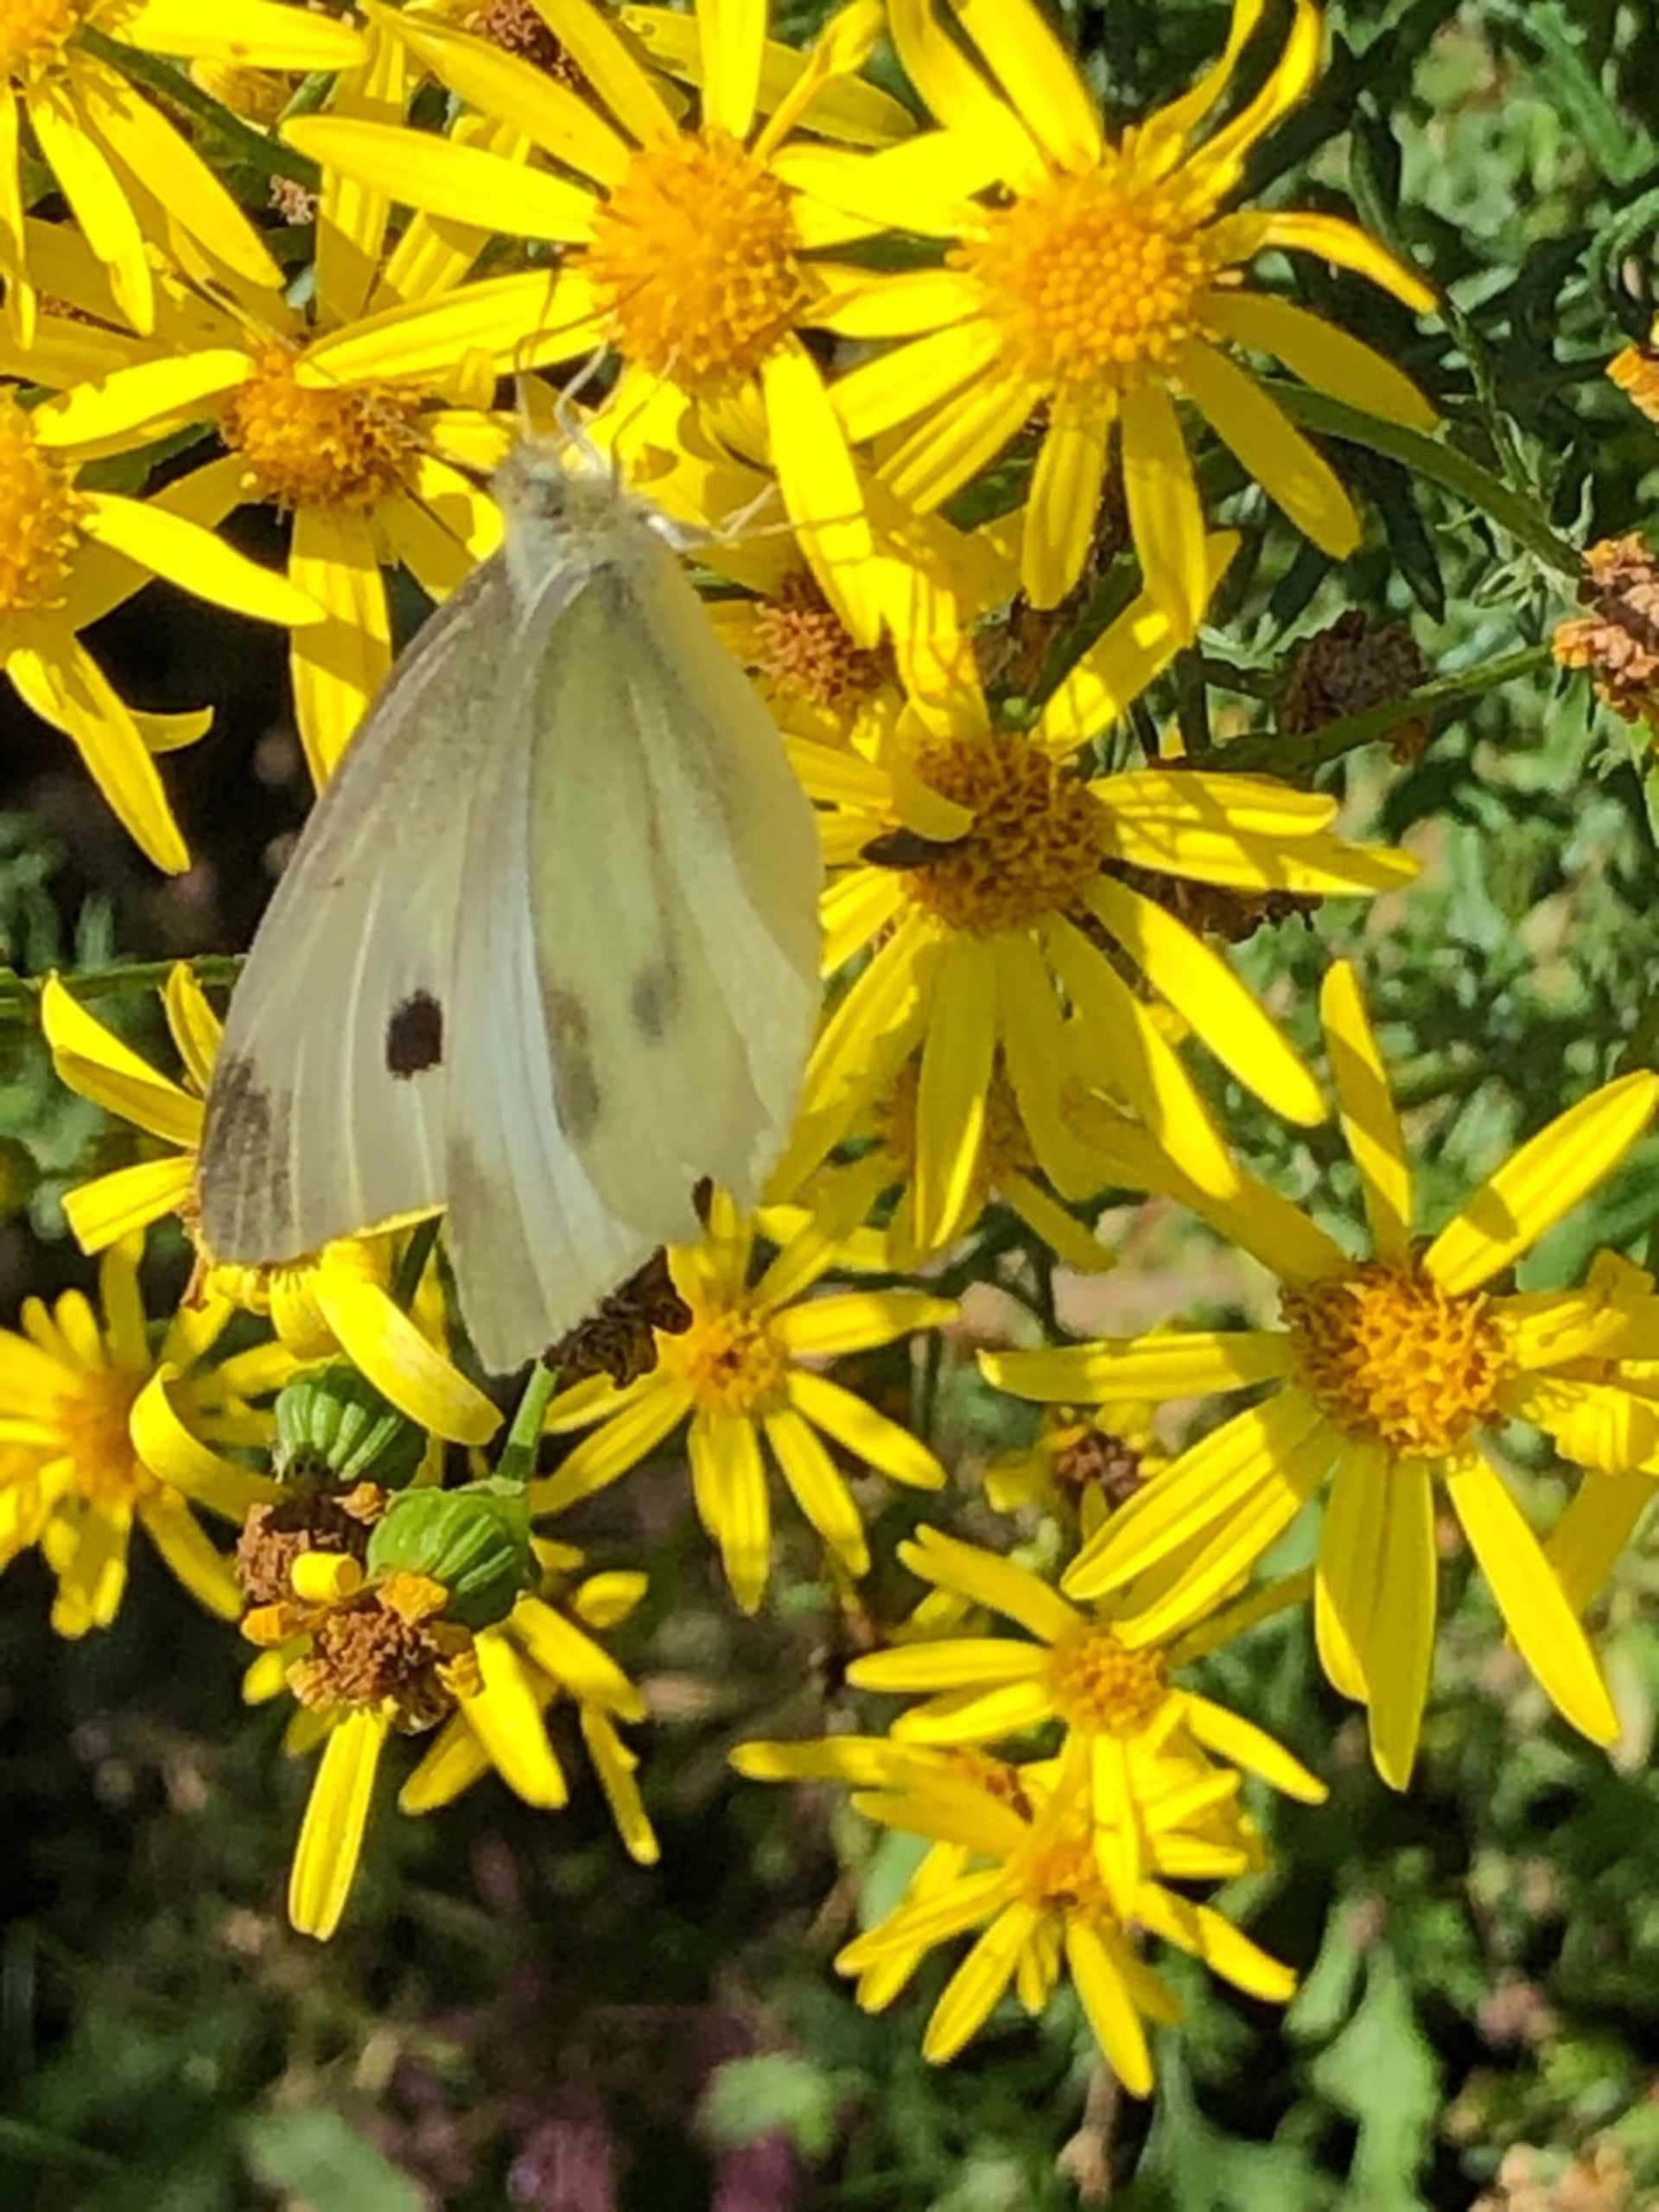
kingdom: Animalia
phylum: Arthropoda
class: Insecta
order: Lepidoptera
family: Pieridae
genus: Pieris
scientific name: Pieris rapae
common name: Lille kålsommerfugl
